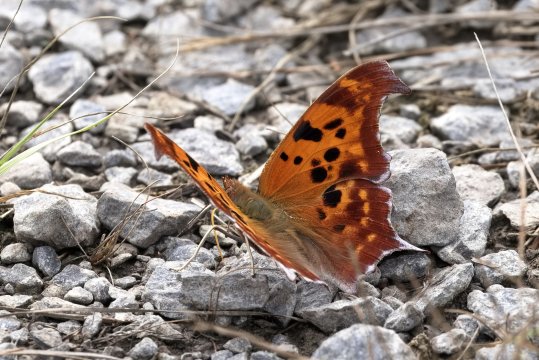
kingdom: Animalia
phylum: Arthropoda
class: Insecta
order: Lepidoptera
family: Nymphalidae
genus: Polygonia
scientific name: Polygonia interrogationis
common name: Question Mark
